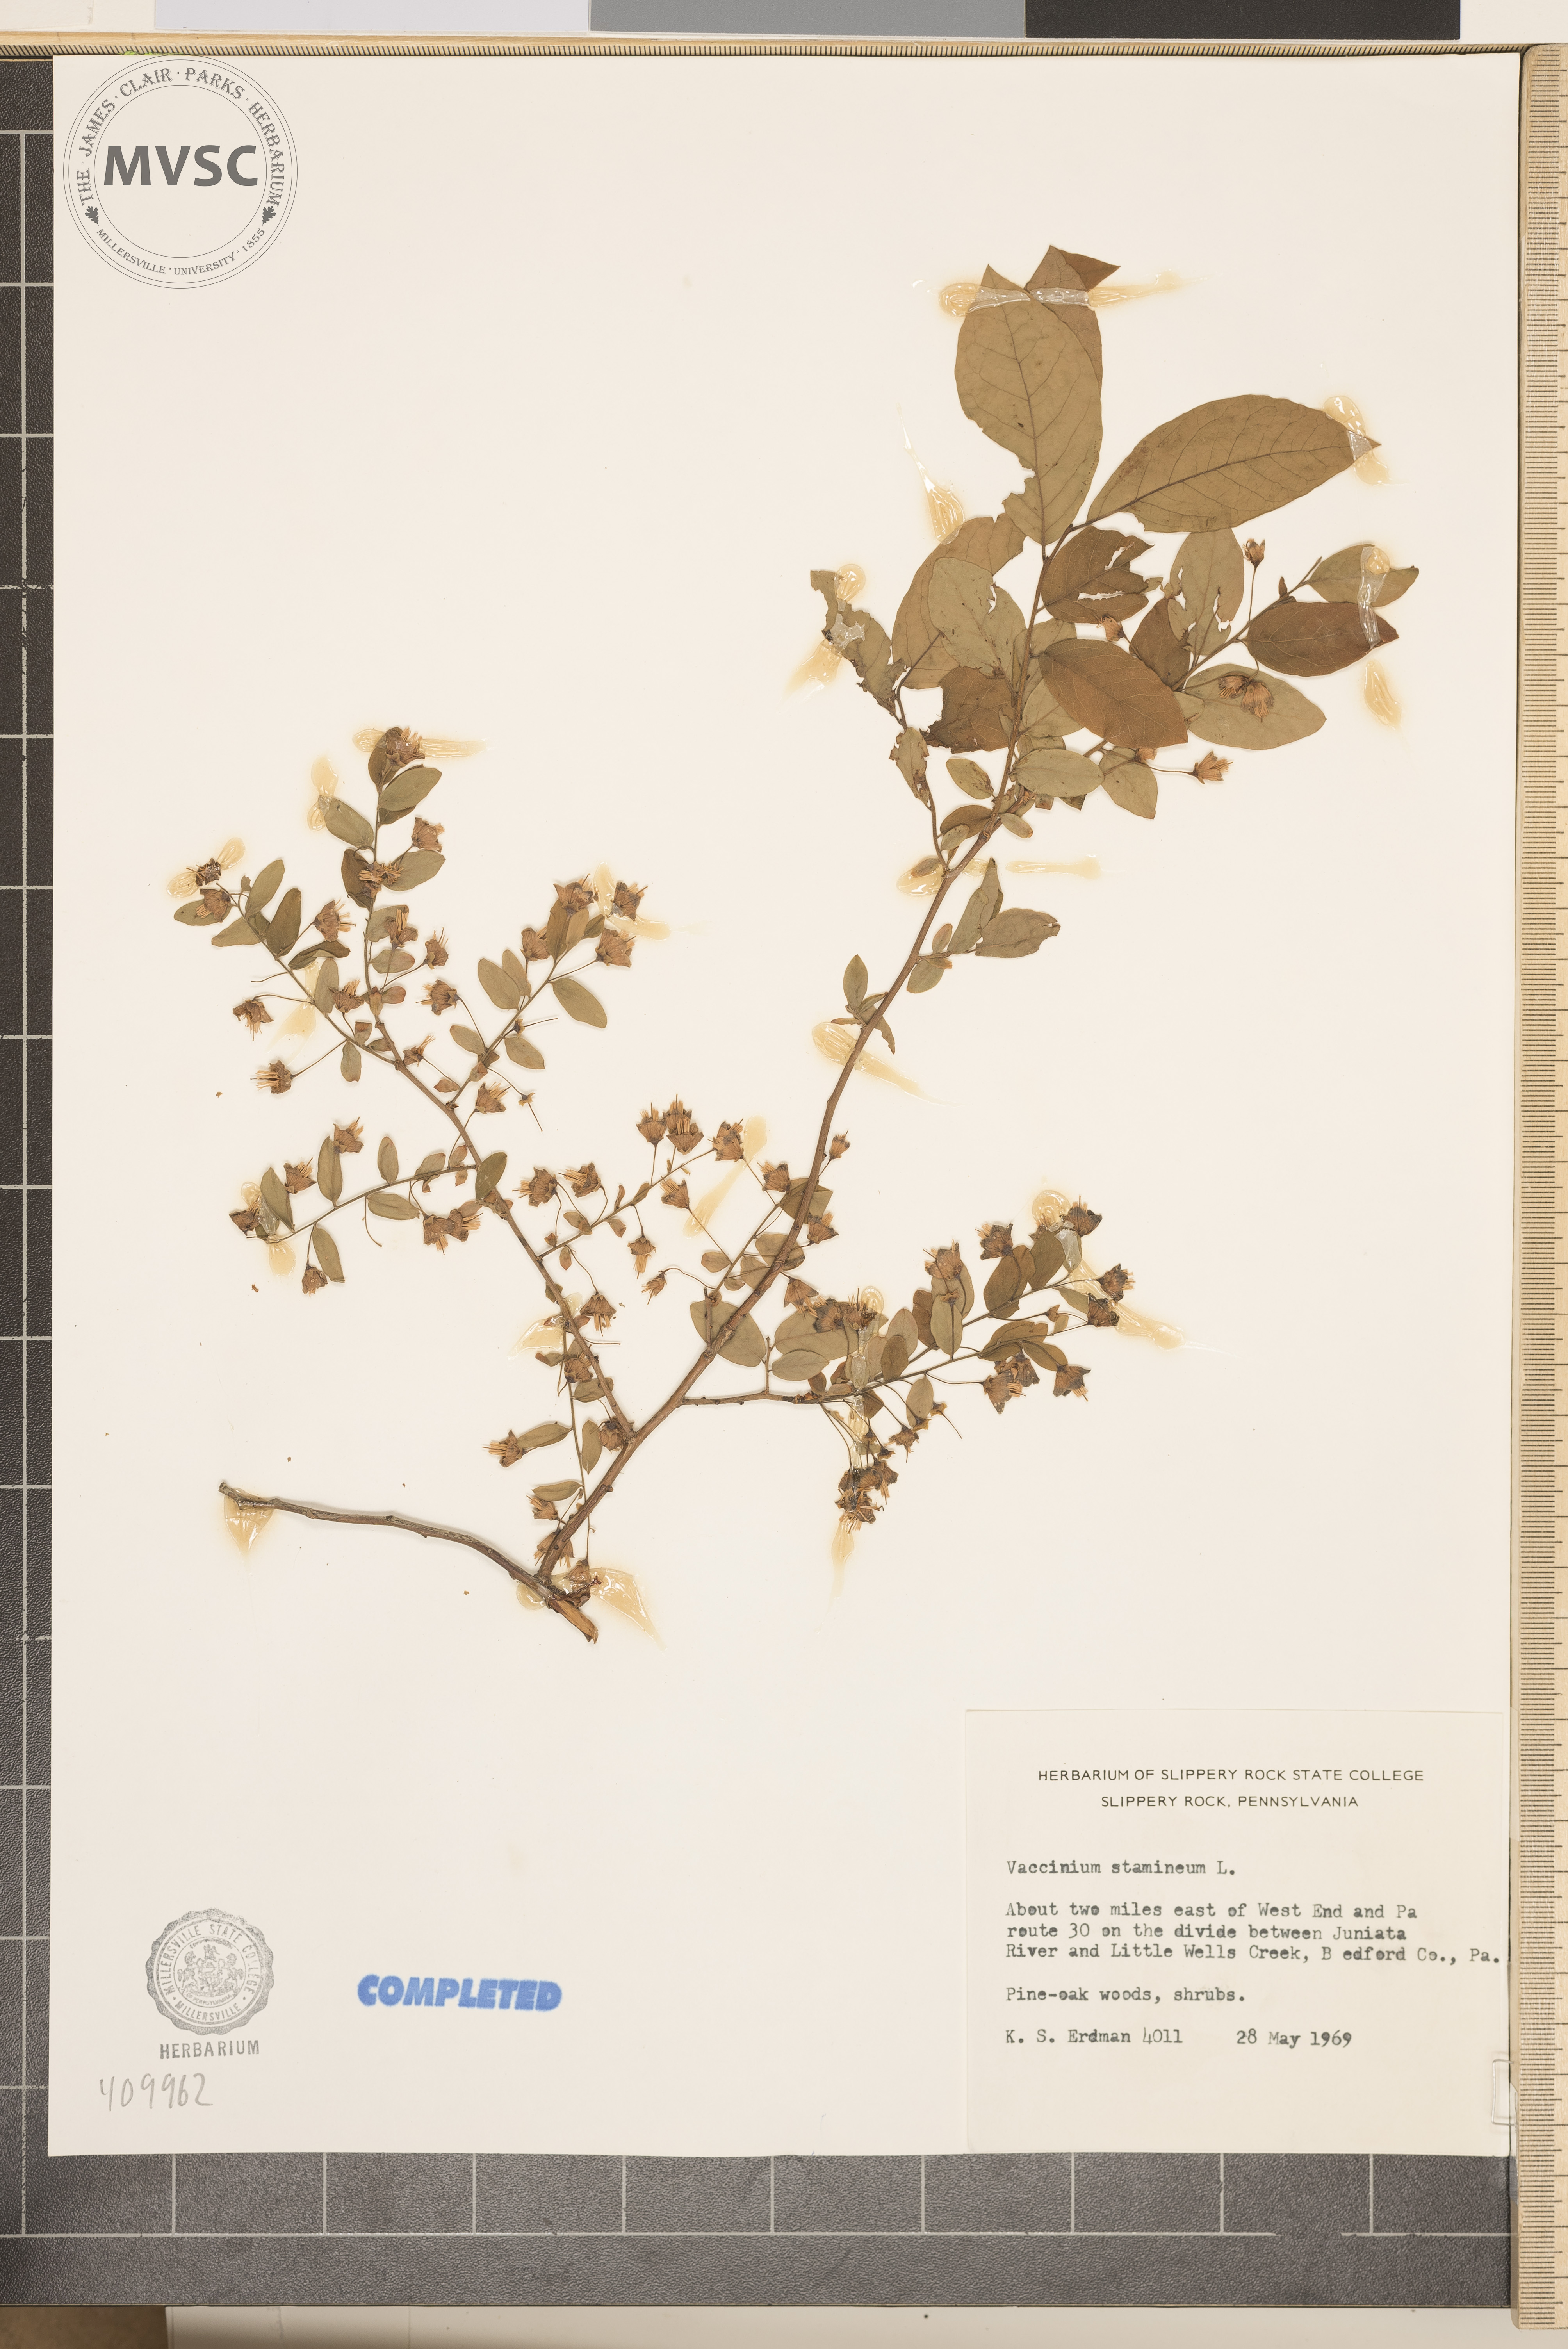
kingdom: Plantae
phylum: Tracheophyta
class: Magnoliopsida
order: Ericales
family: Ericaceae
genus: Vaccinium
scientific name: Vaccinium stamineum
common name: Deerberry
